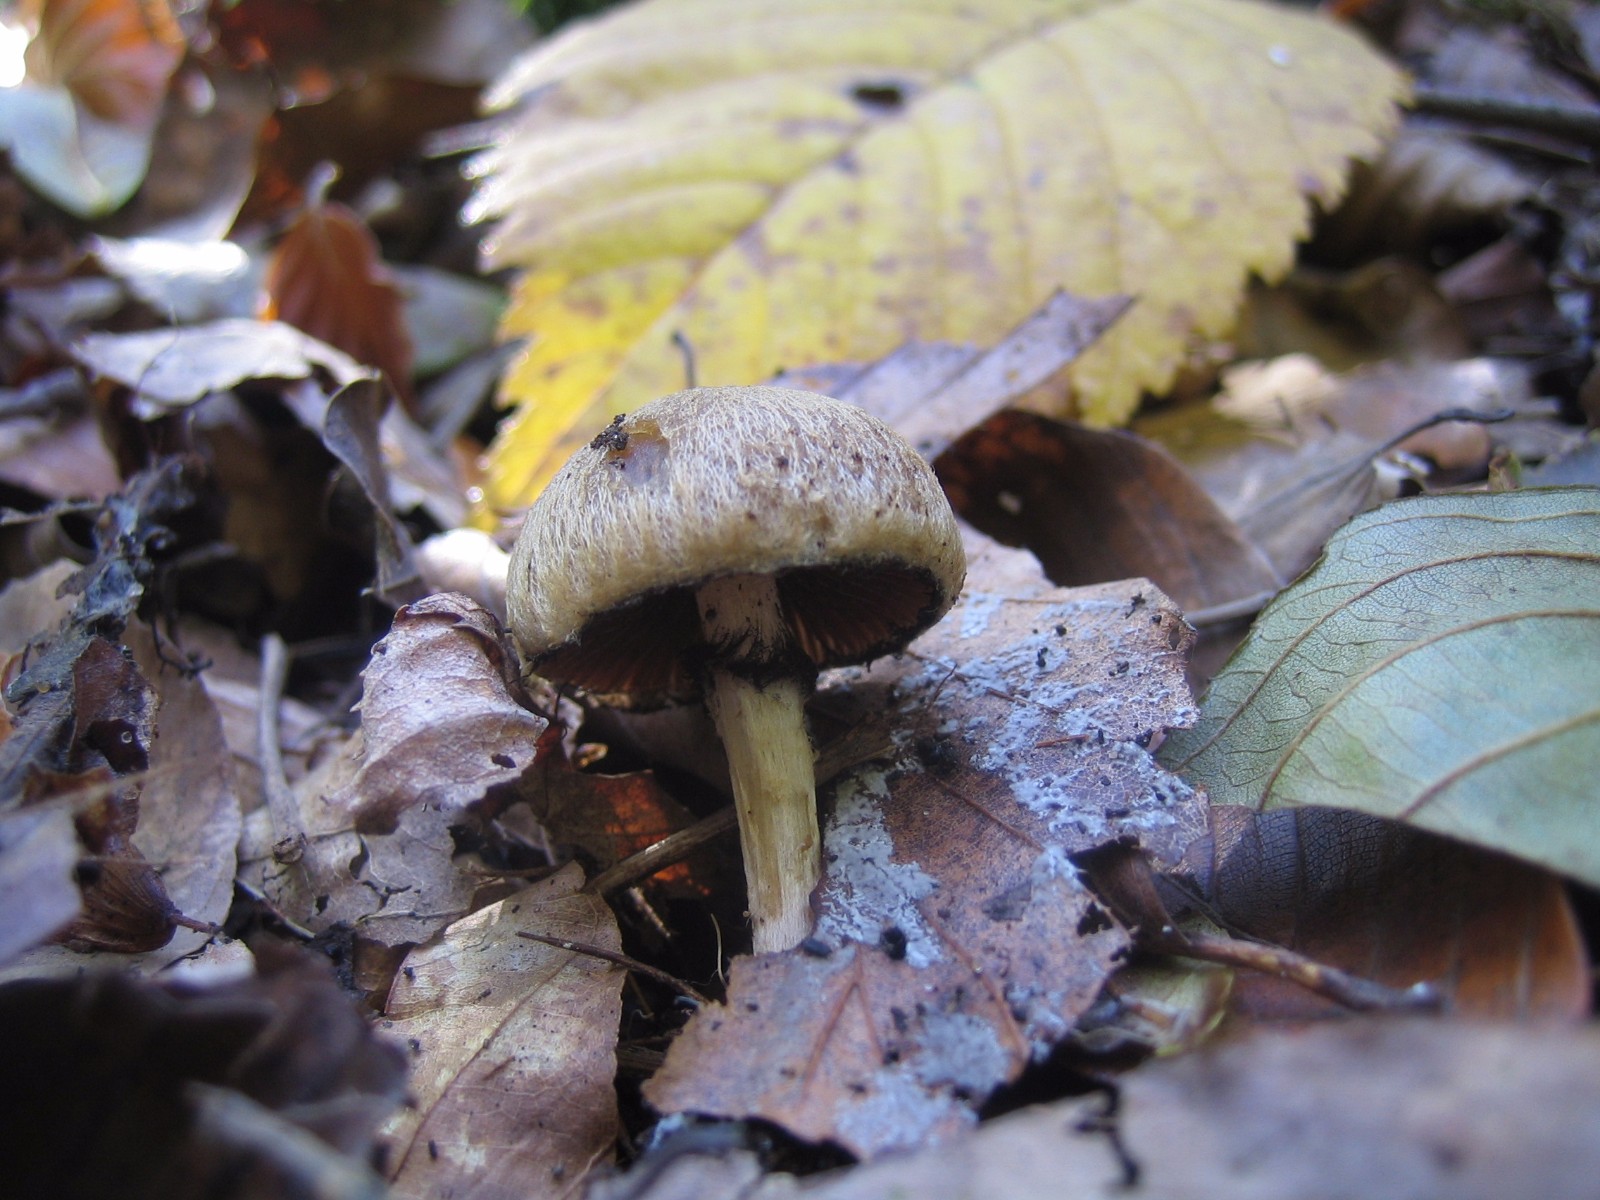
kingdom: Fungi
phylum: Basidiomycota
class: Agaricomycetes
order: Agaricales
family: Psathyrellaceae
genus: Lacrymaria
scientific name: Lacrymaria lacrymabunda
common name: grædende mørkhat
